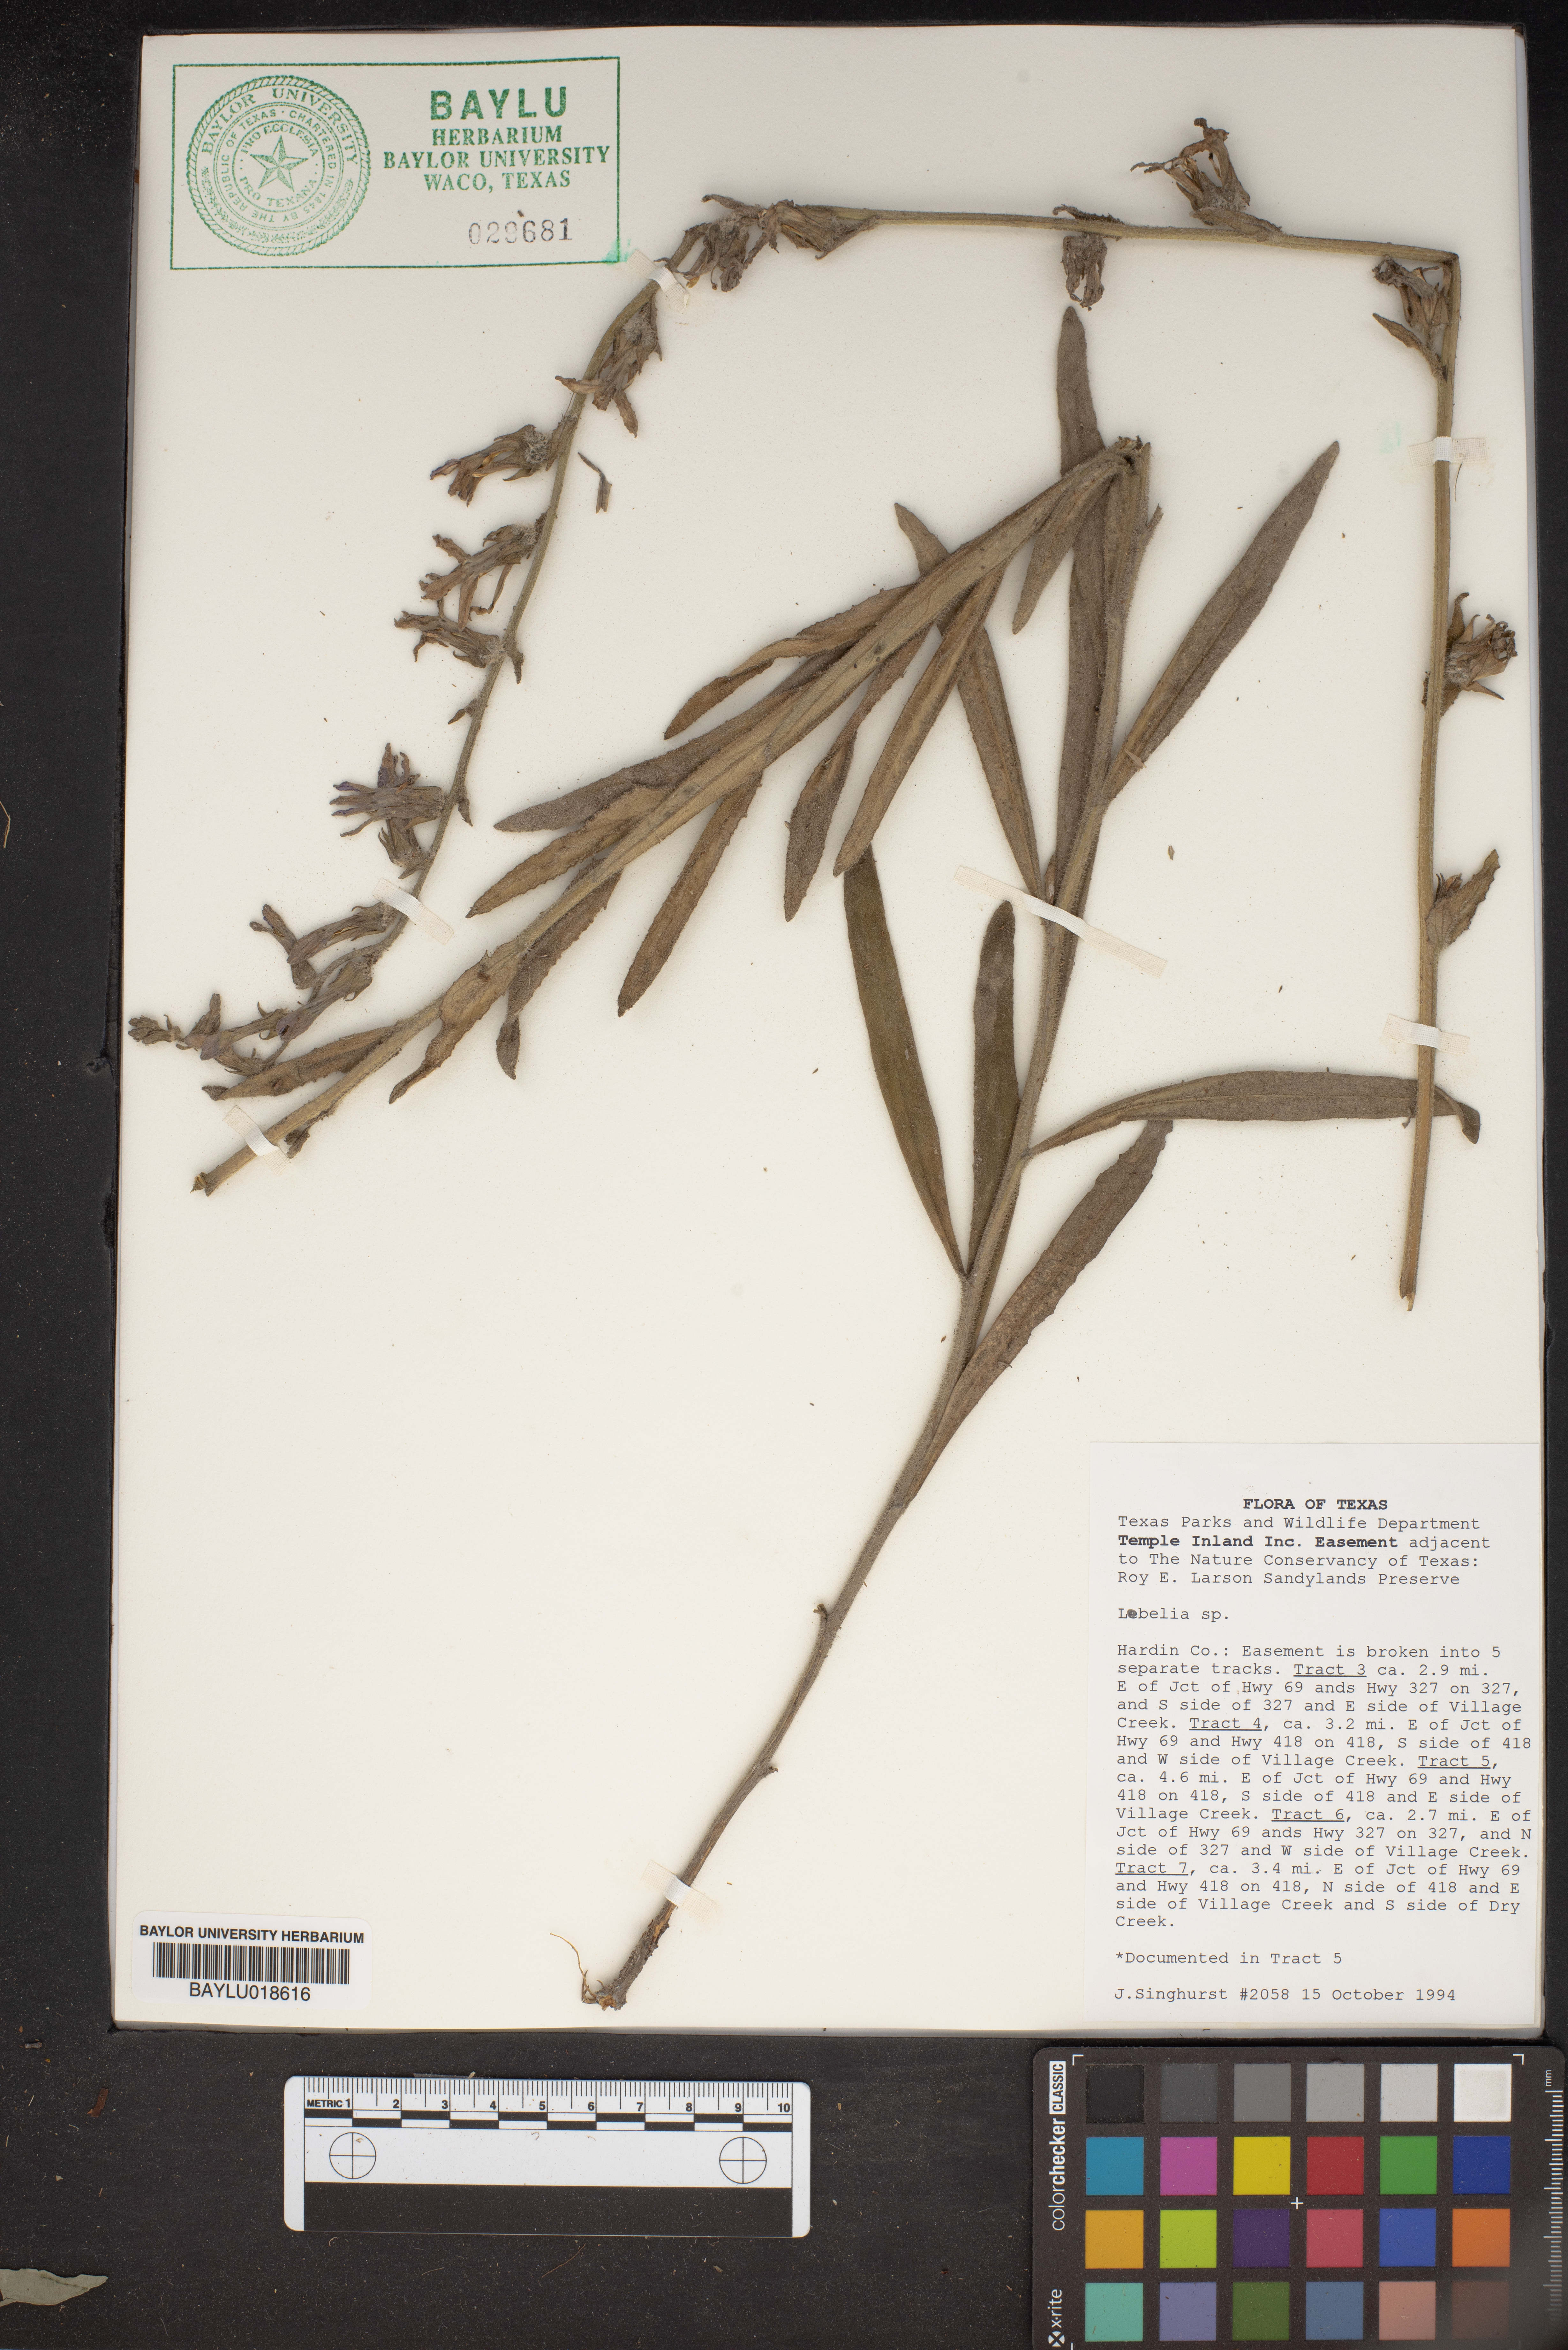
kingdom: Plantae
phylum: Tracheophyta
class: Magnoliopsida
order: Asterales
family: Campanulaceae
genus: Lobelia
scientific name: Lobelia
